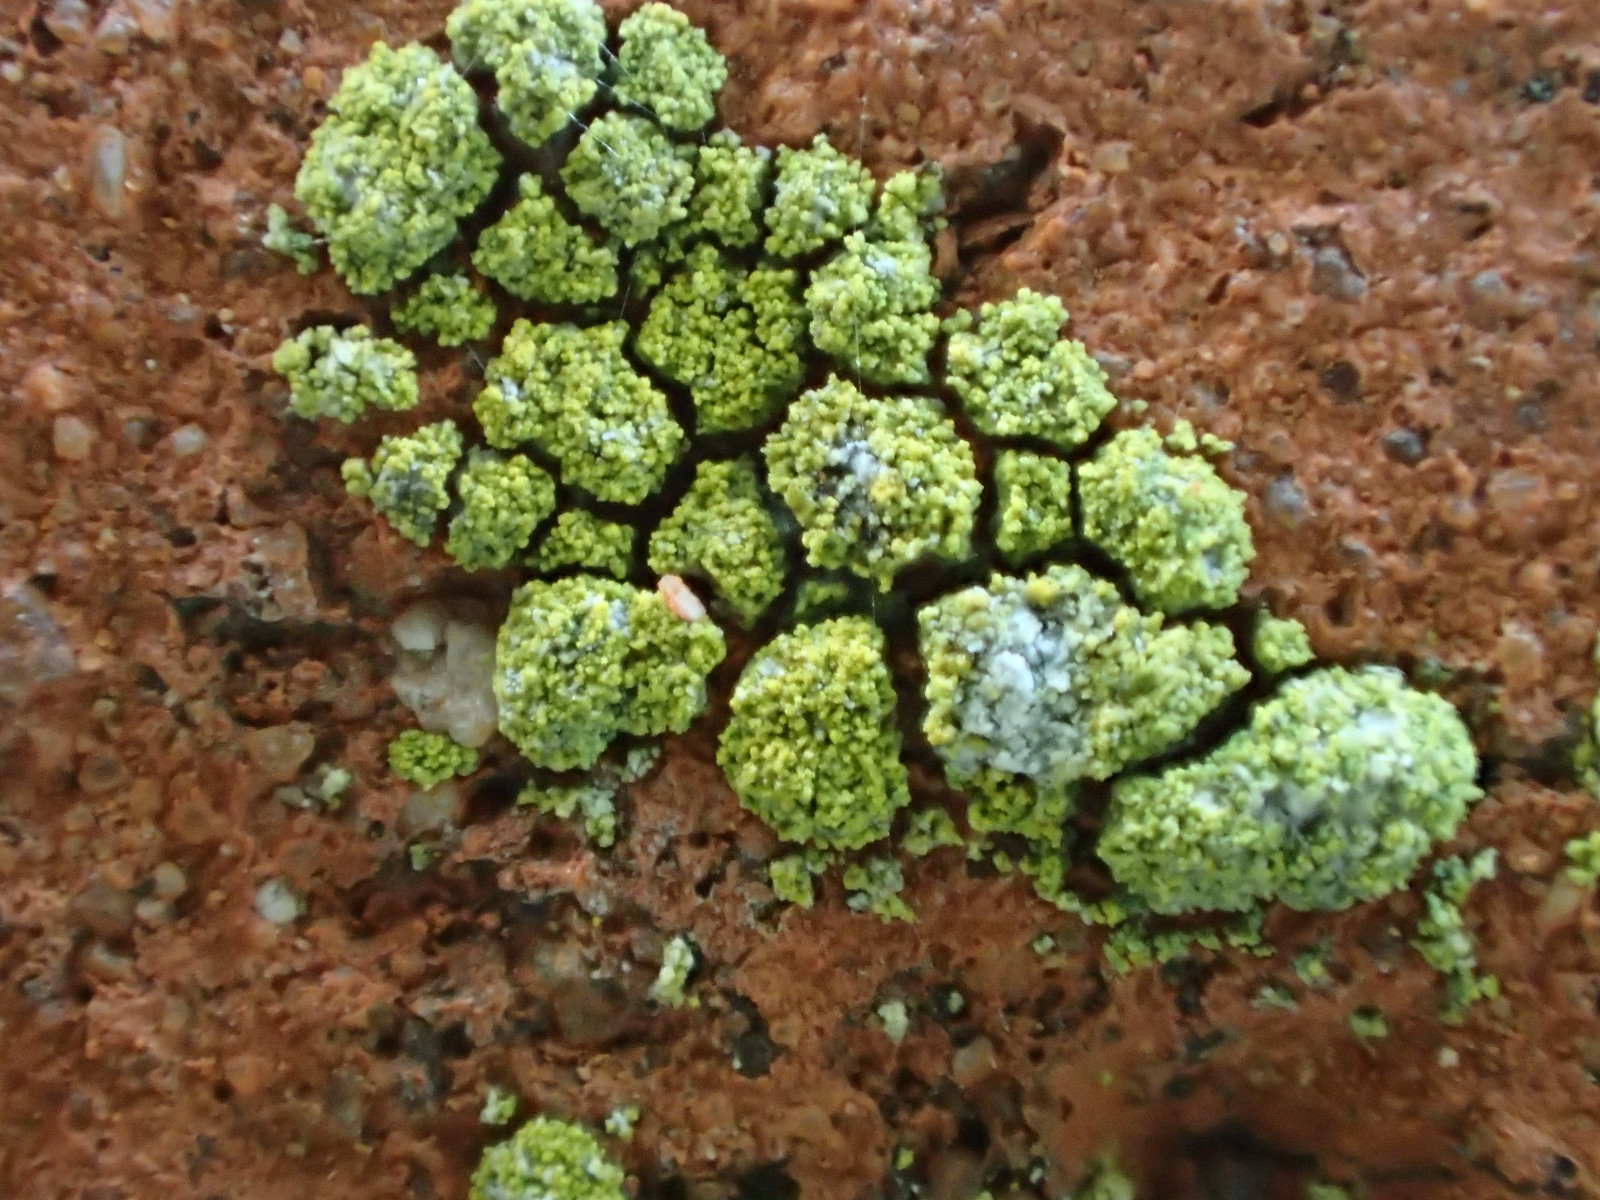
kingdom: Fungi
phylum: Ascomycota
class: Lecanoromycetes
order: Teloschistales
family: Teloschistaceae
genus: Flavoplaca
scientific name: Flavoplaca flavocitrina
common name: grynskællet orangelav
